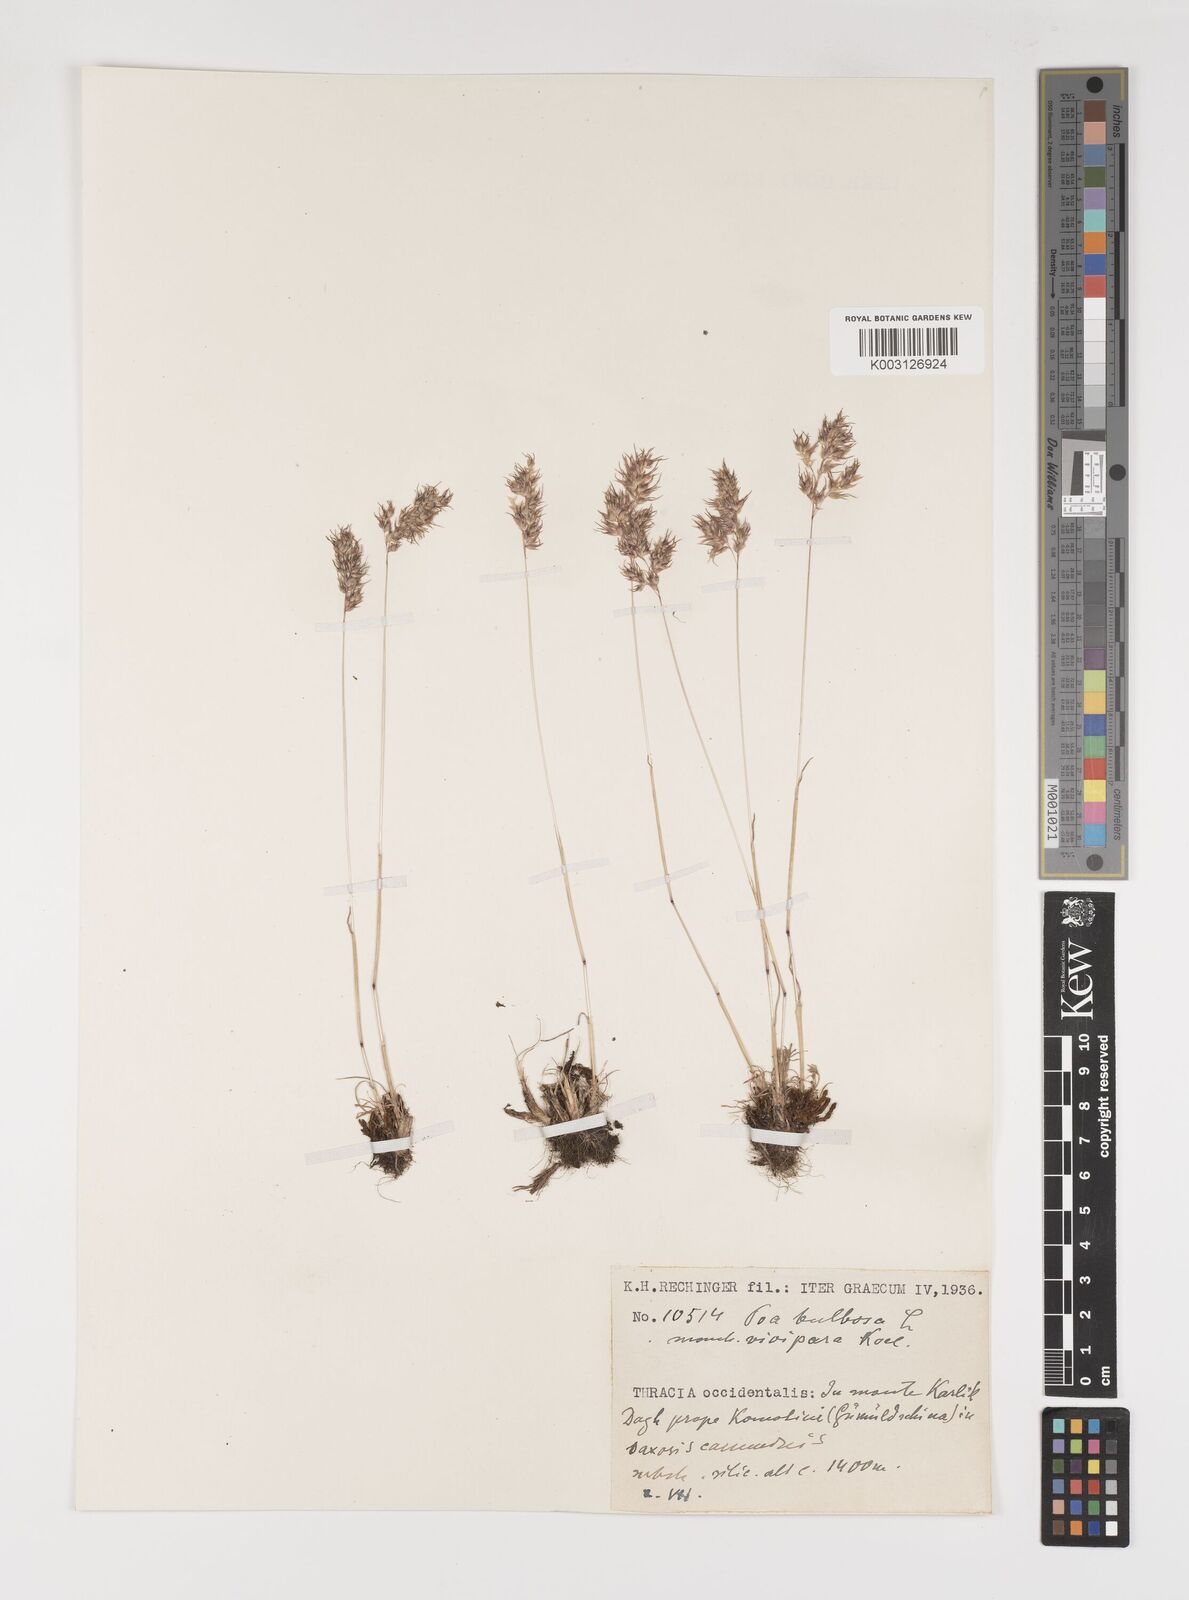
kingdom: Plantae
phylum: Tracheophyta
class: Liliopsida
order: Poales
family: Poaceae
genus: Poa
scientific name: Poa bulbosa
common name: Bulbous bluegrass
